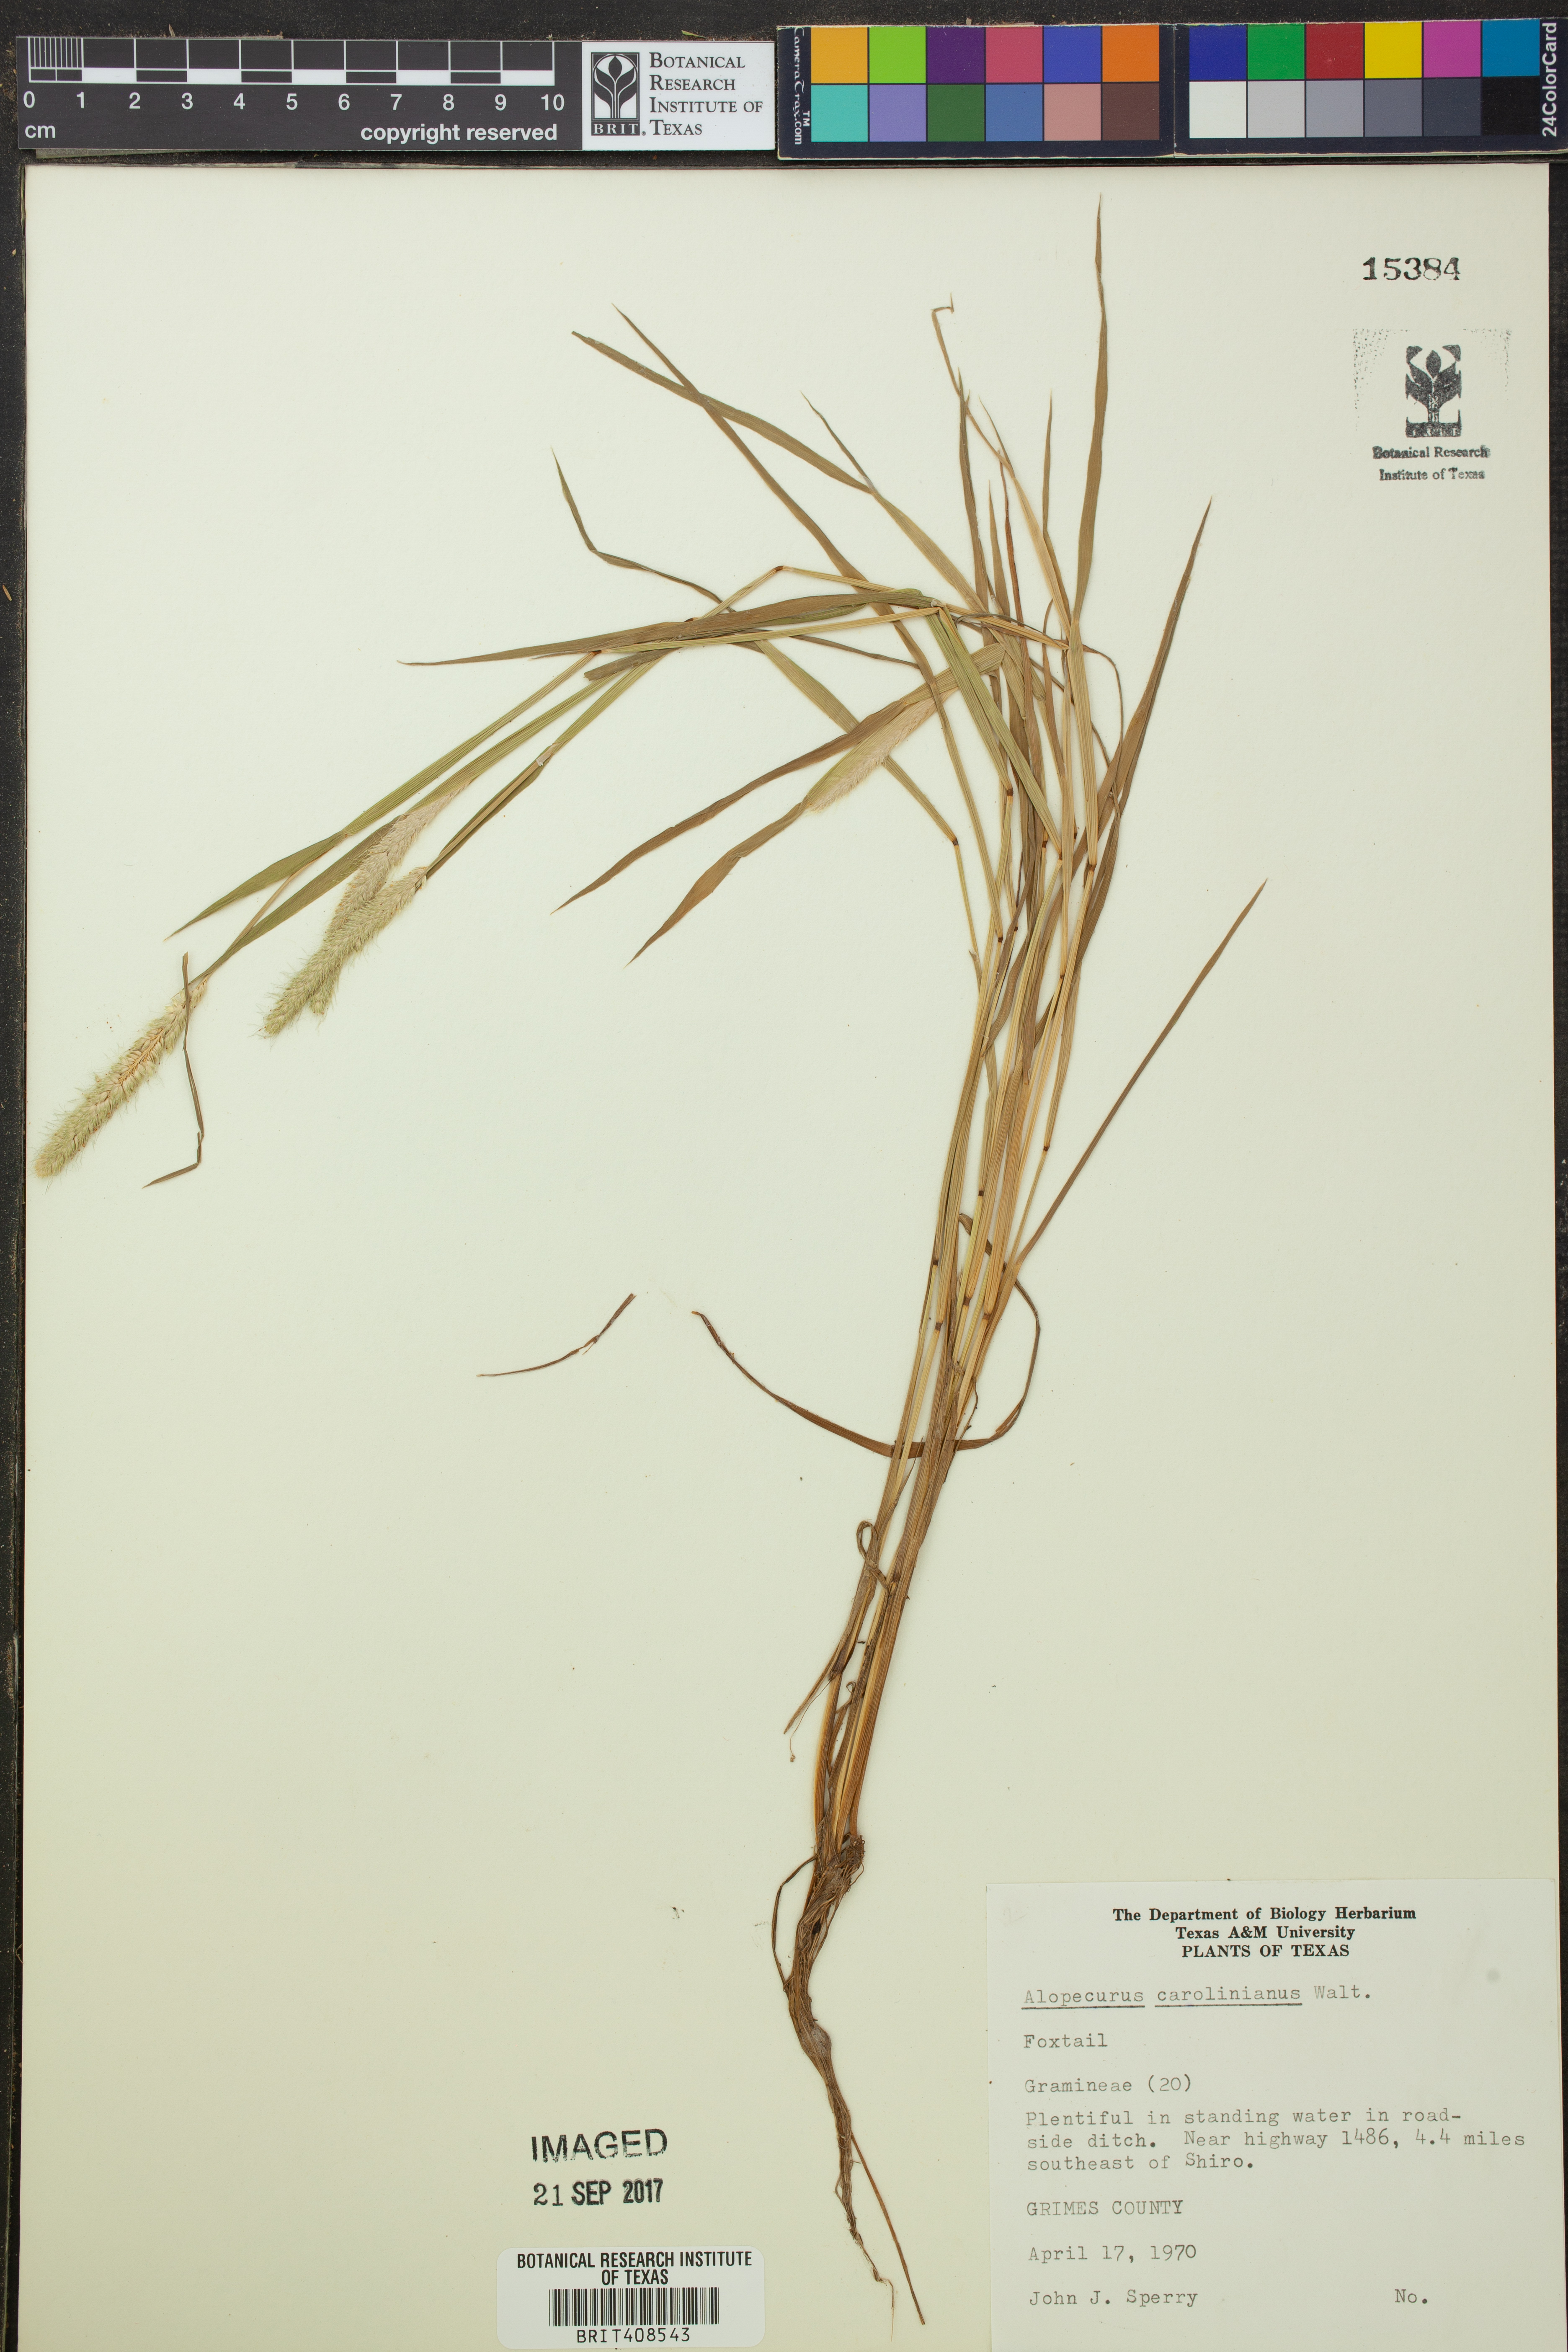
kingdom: Plantae
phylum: Tracheophyta
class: Liliopsida
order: Poales
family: Poaceae
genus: Alopecurus
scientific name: Alopecurus carolinianus
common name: Tufted foxtail
